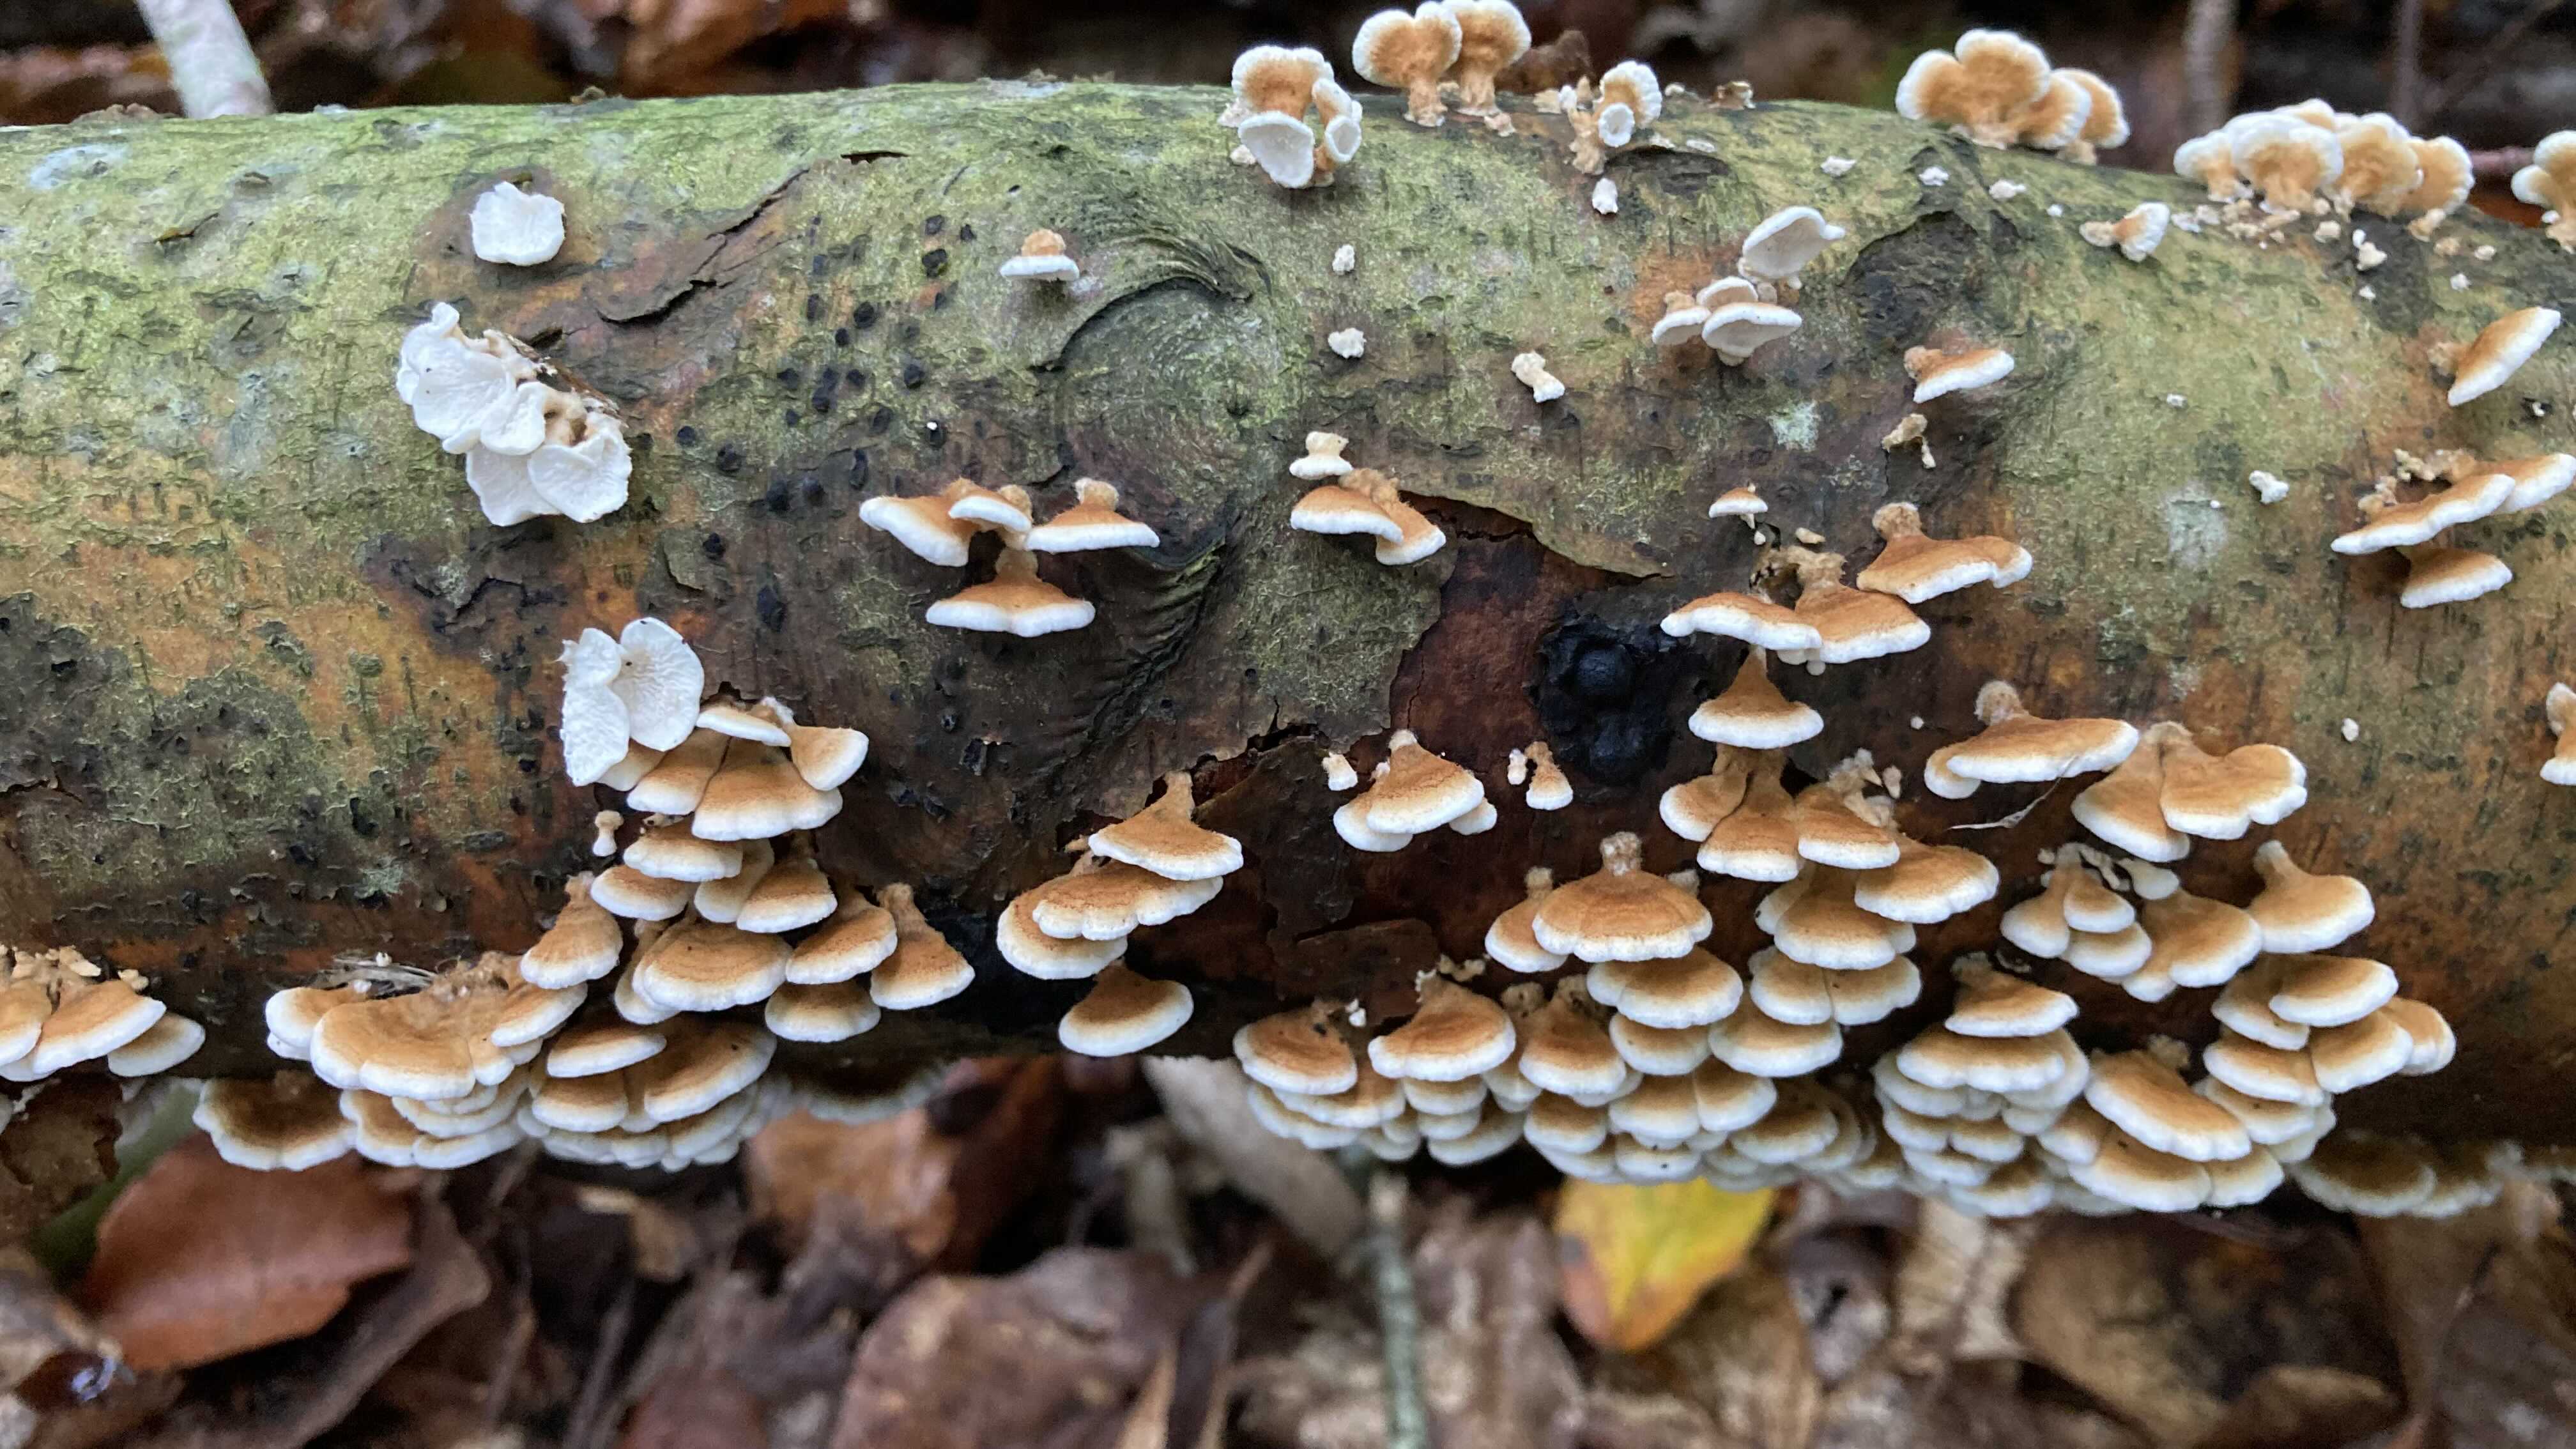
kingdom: Fungi
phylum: Basidiomycota
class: Agaricomycetes
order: Amylocorticiales
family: Amylocorticiaceae
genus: Plicaturopsis
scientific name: Plicaturopsis crispa
